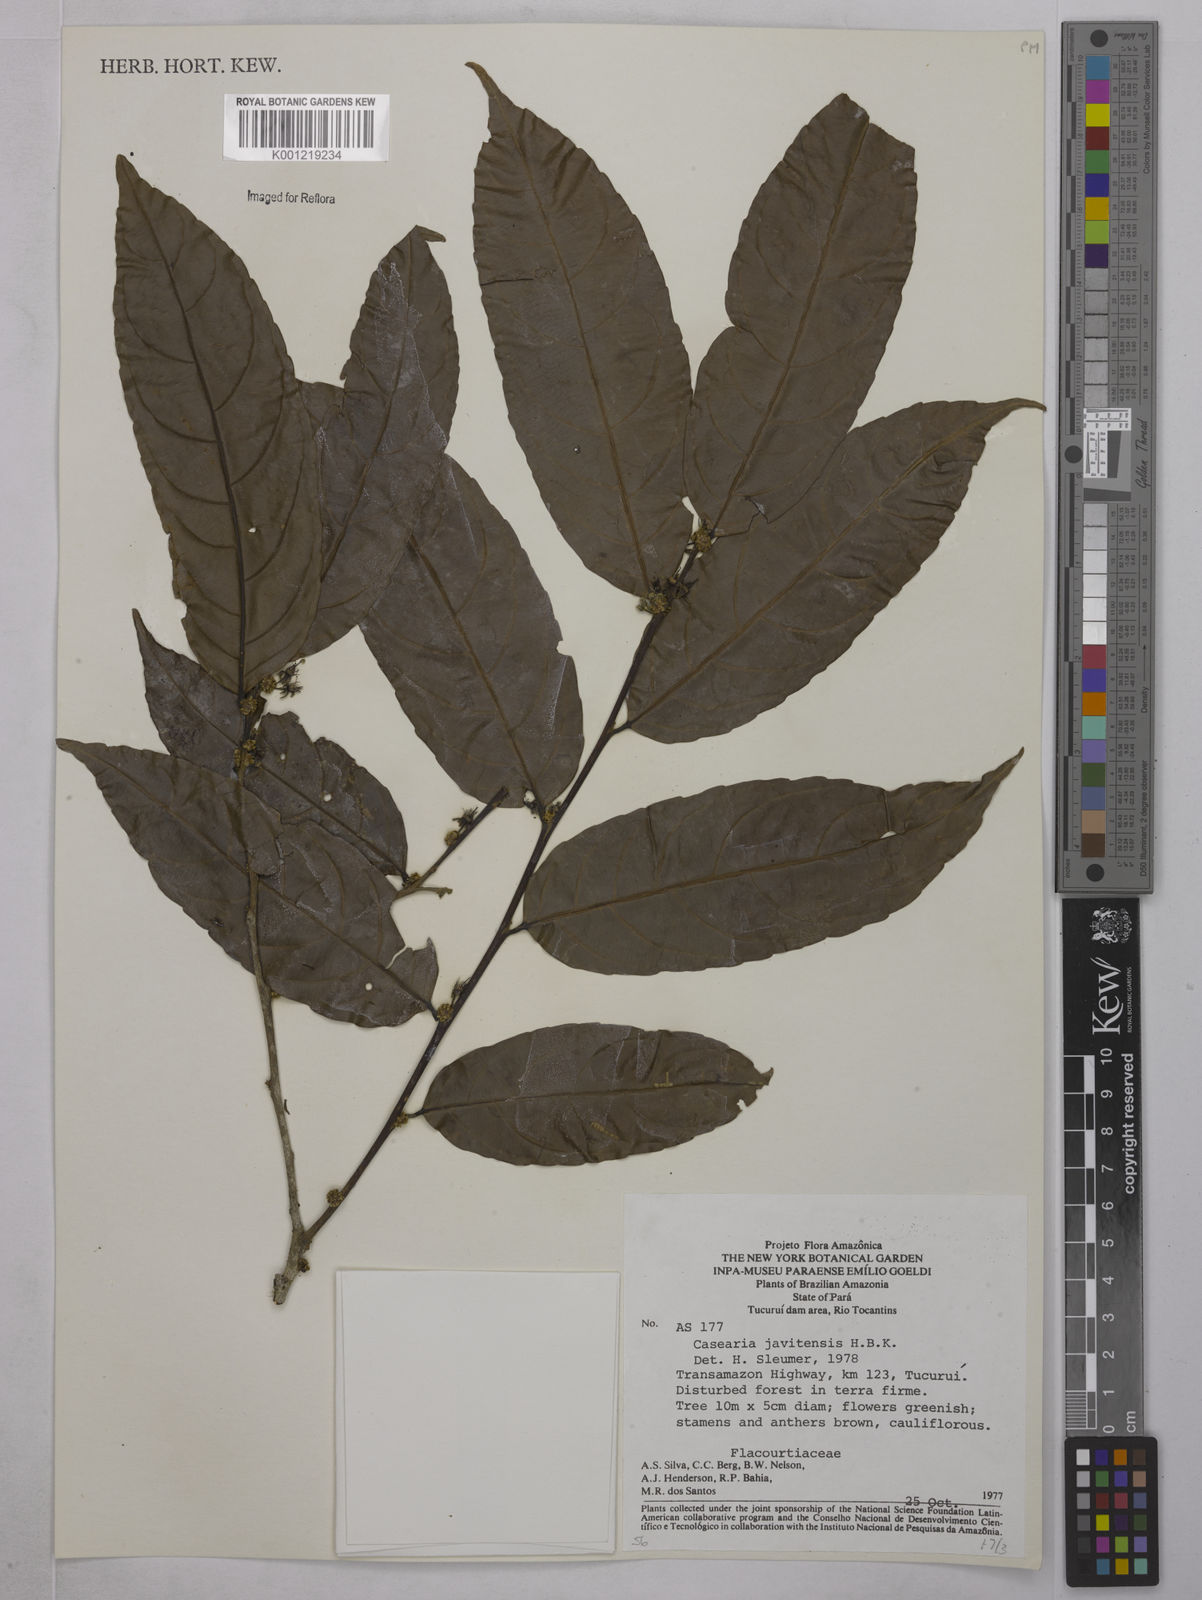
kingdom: Plantae
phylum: Tracheophyta
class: Magnoliopsida
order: Malpighiales
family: Salicaceae
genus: Piparea
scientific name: Piparea multiflora
